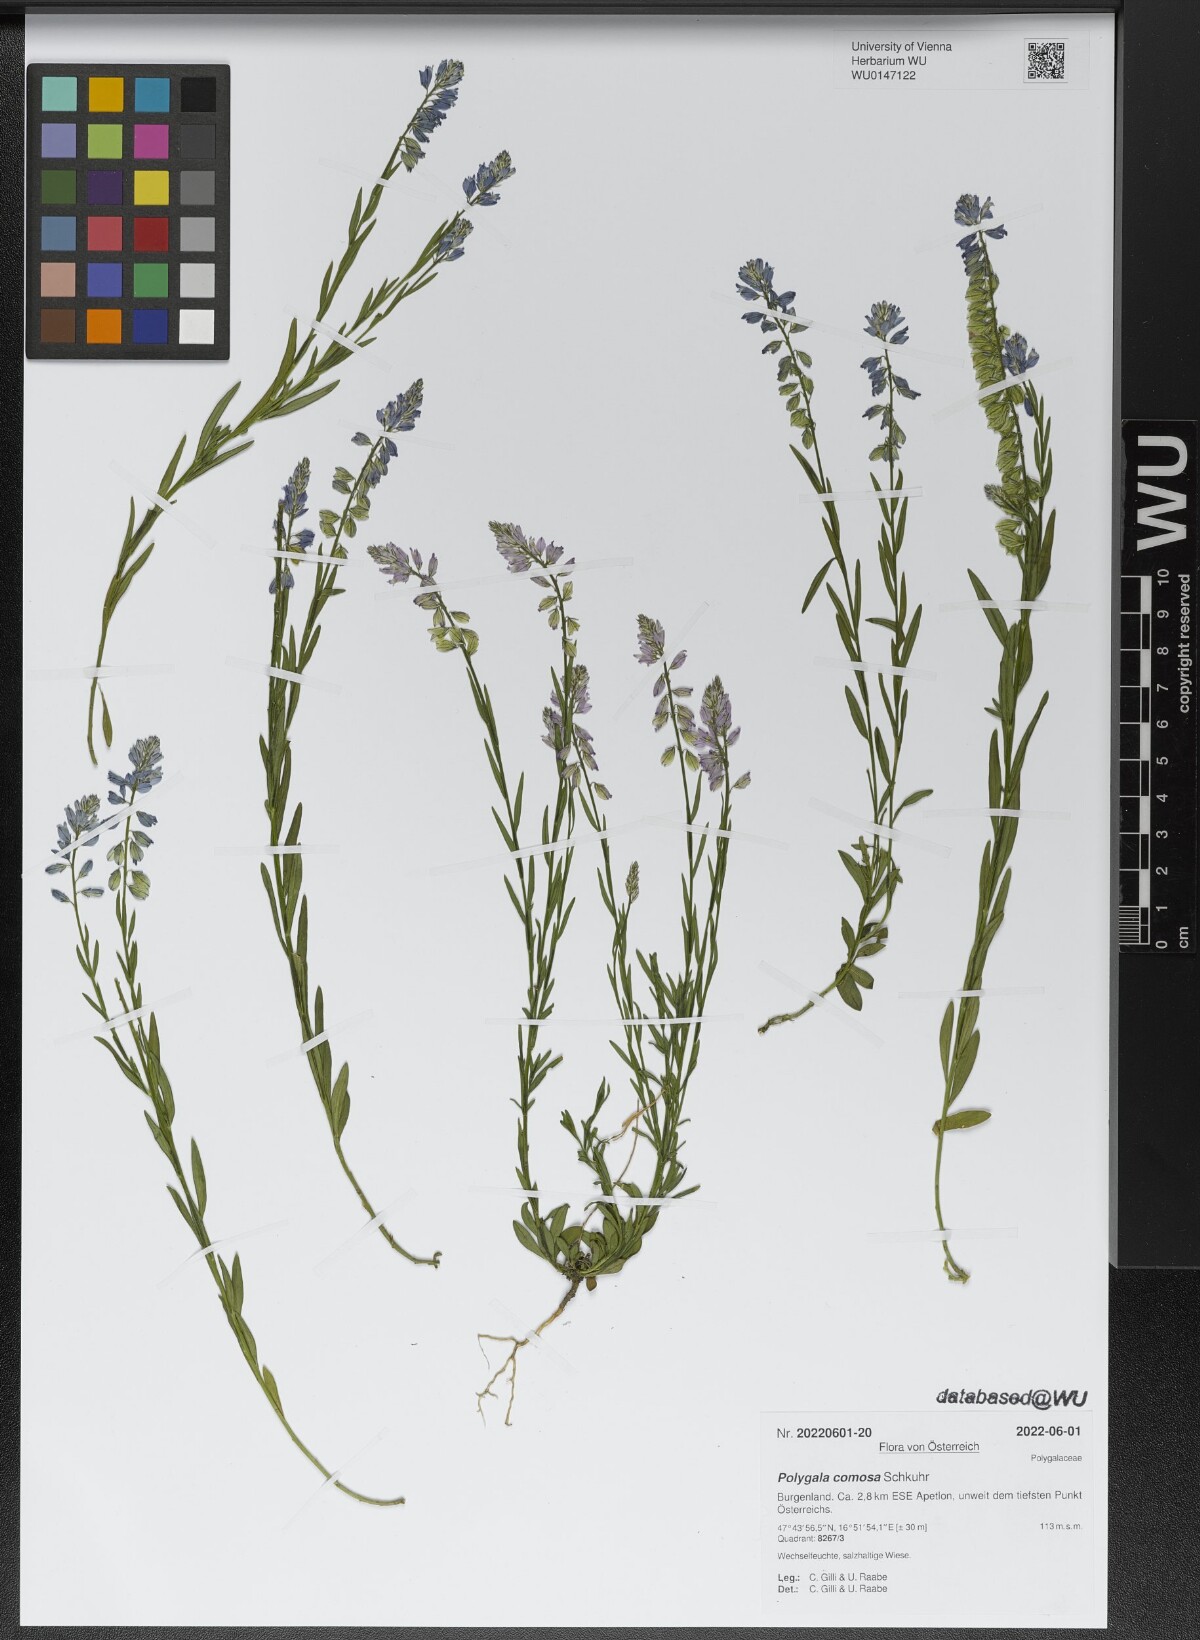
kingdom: Plantae
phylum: Tracheophyta
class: Magnoliopsida
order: Fabales
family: Polygalaceae
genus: Polygala
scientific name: Polygala comosa
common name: Tufted milkwort
